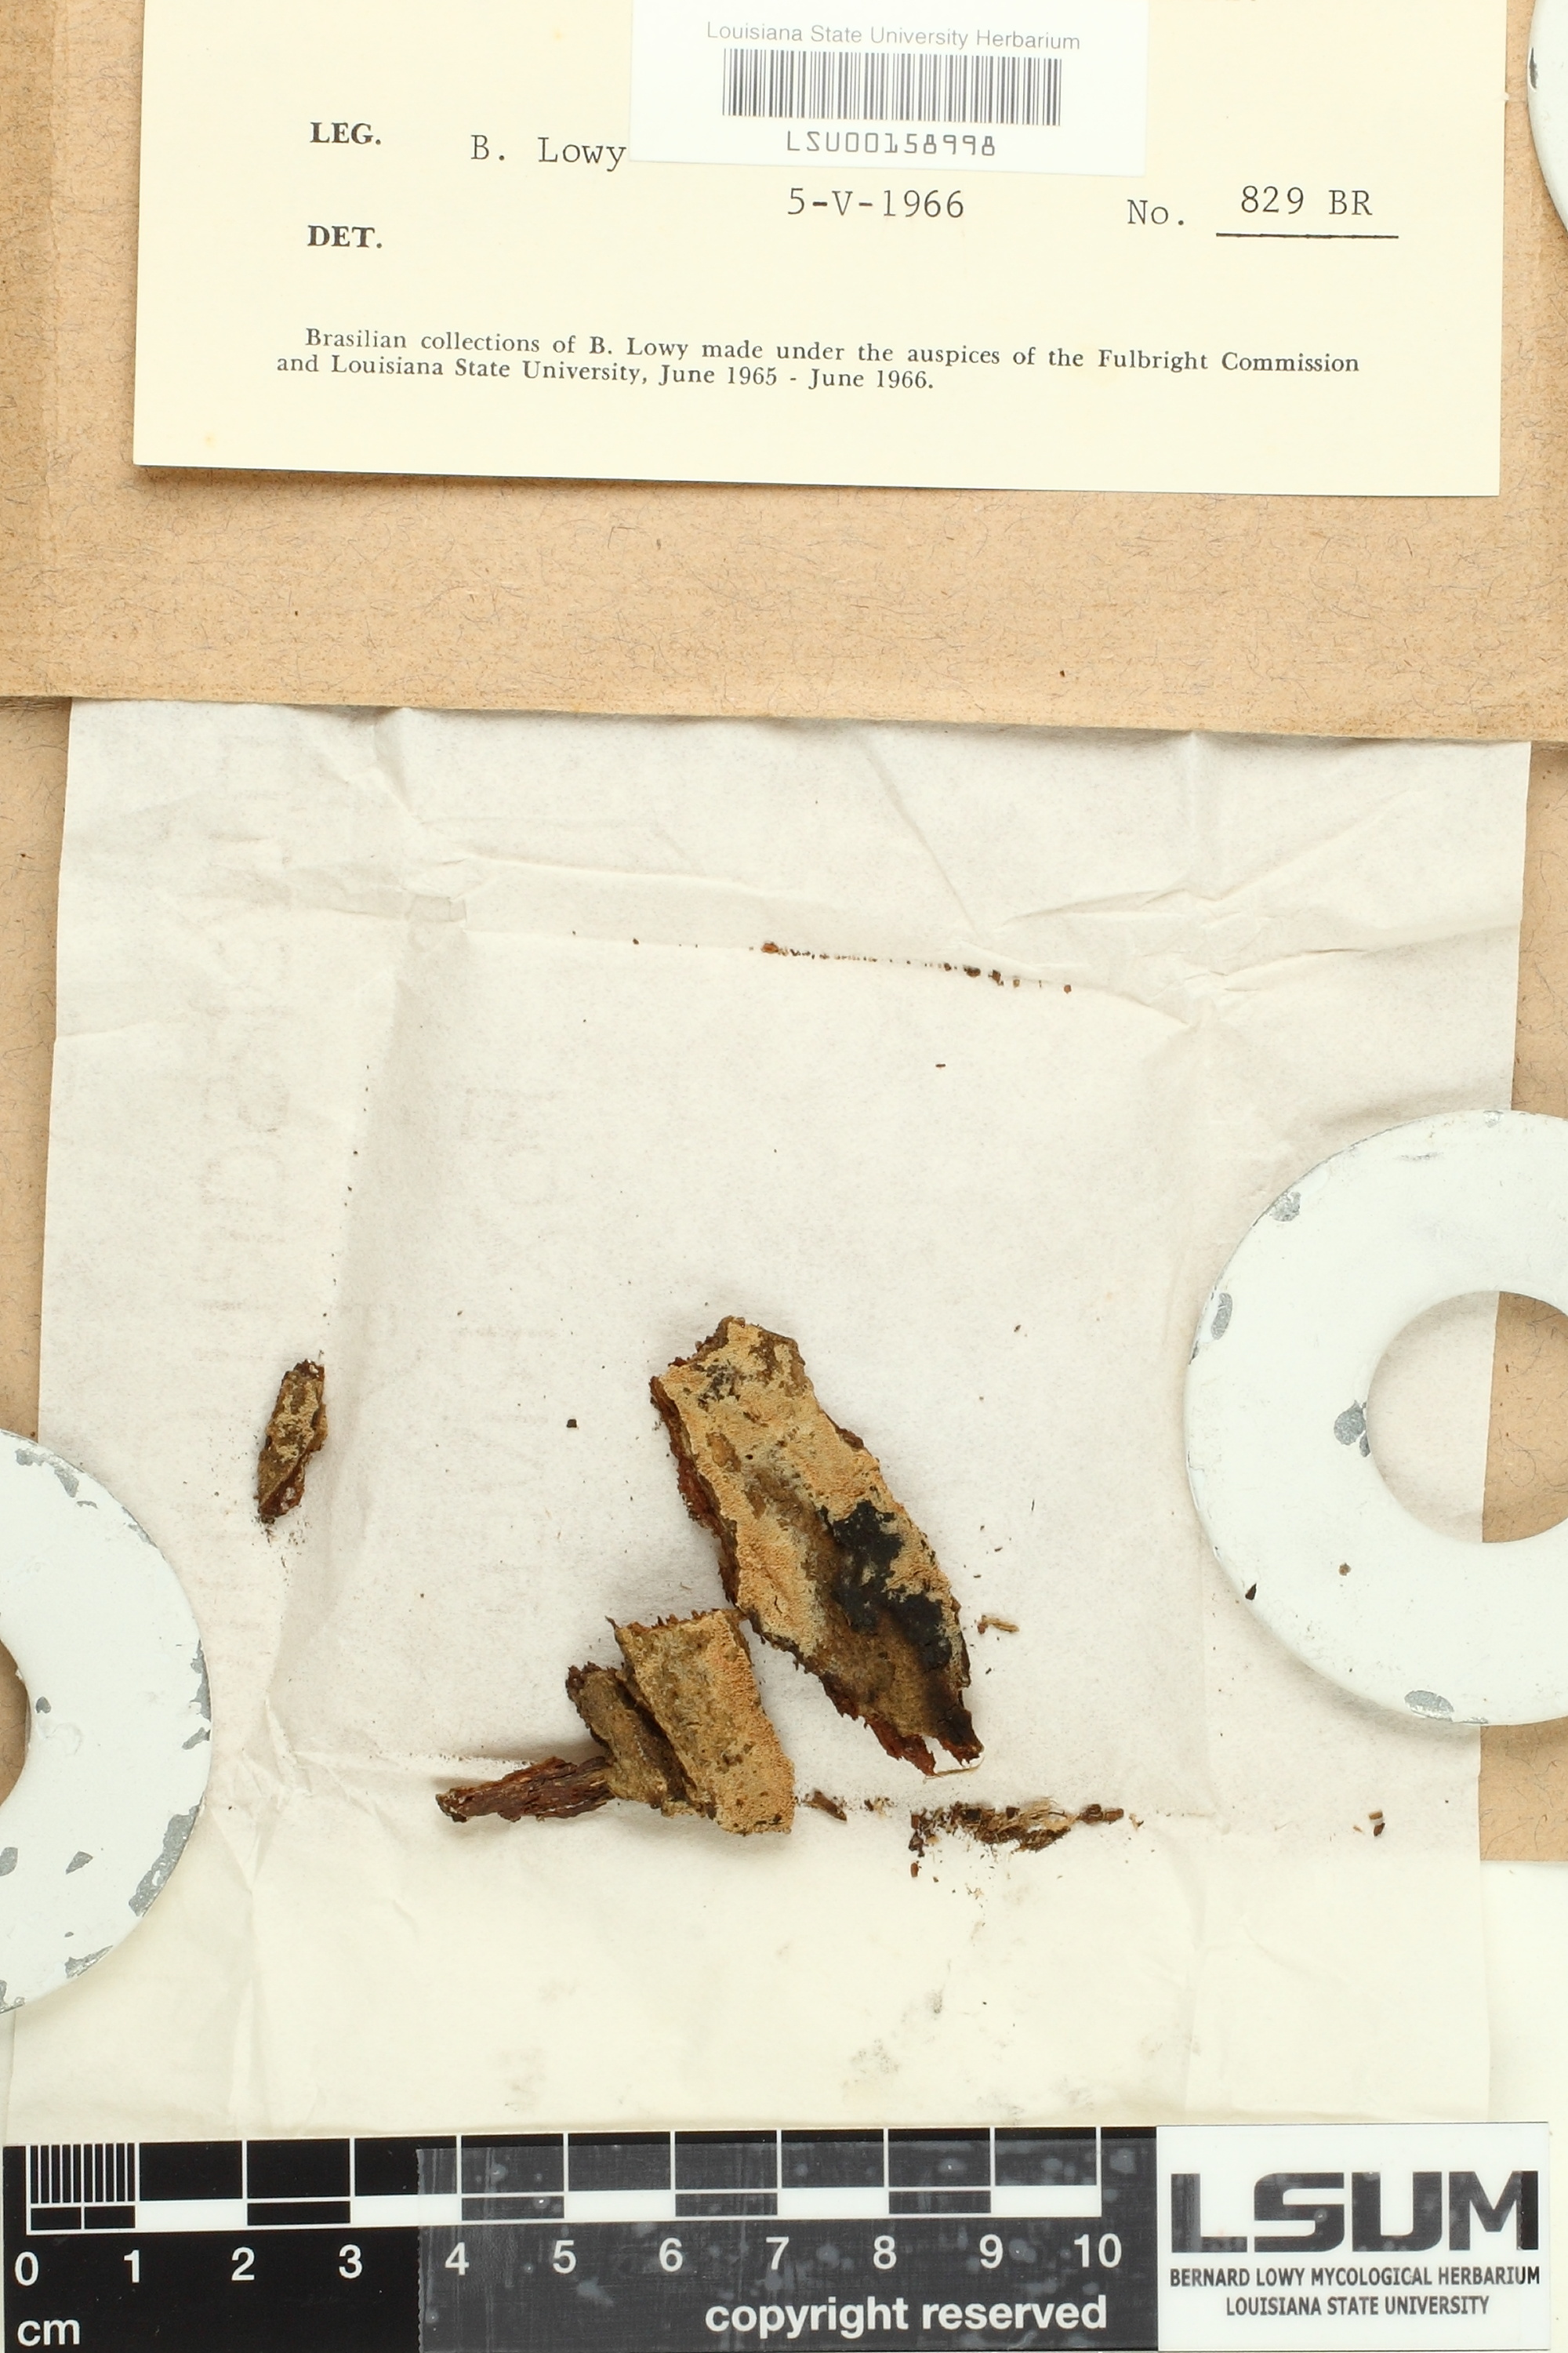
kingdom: Fungi
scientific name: Fungi
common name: Fungi
